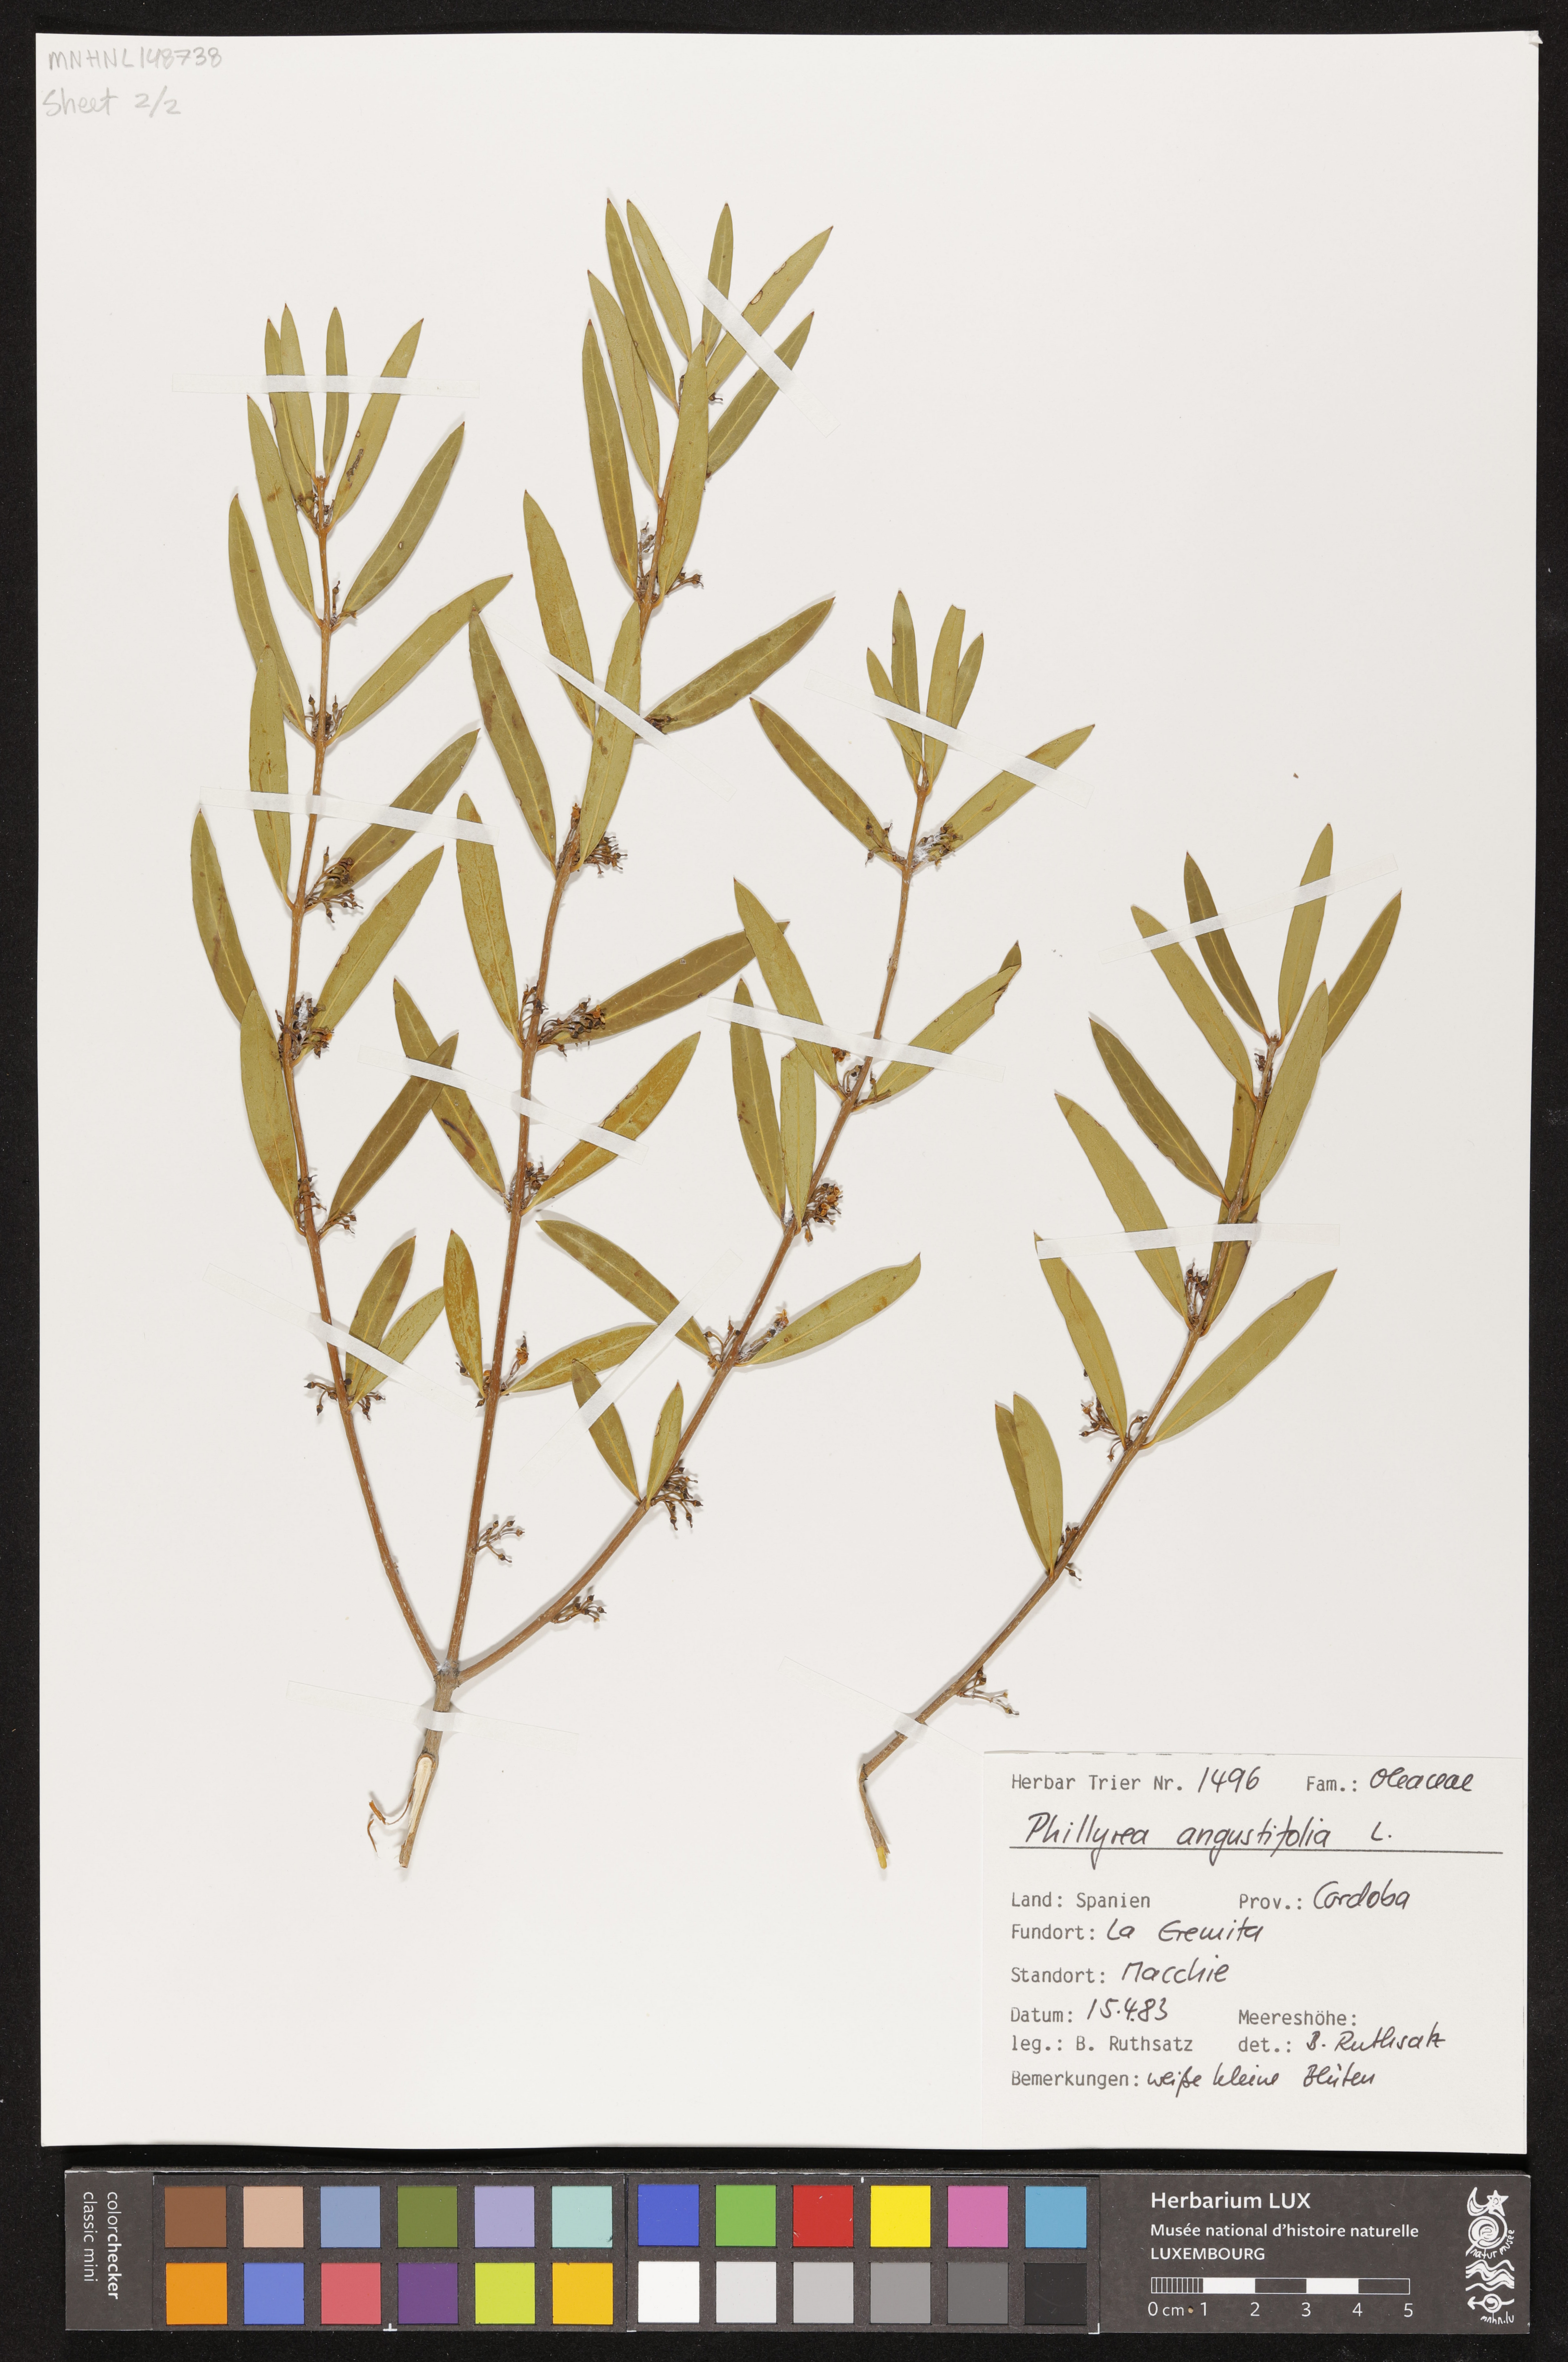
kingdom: Plantae
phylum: Tracheophyta
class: Magnoliopsida
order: Lamiales
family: Oleaceae
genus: Phillyrea
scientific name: Phillyrea angustifolia
